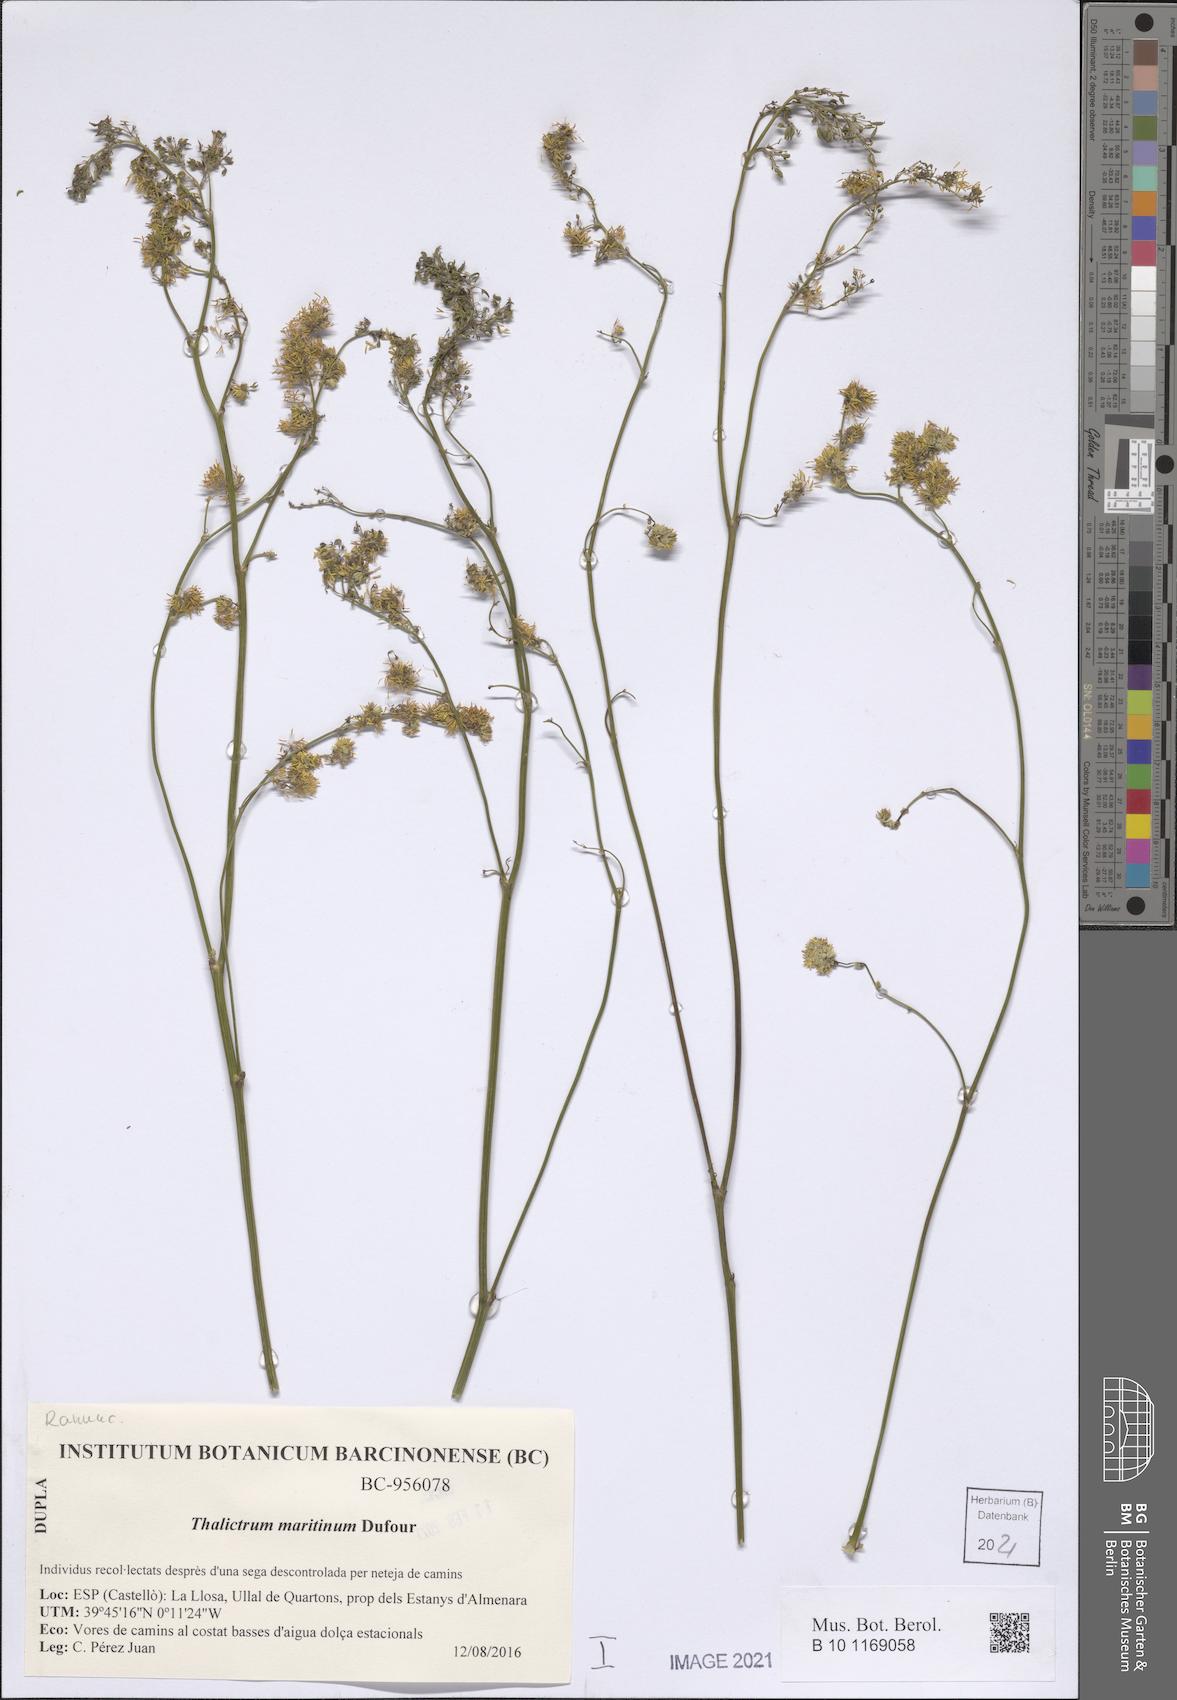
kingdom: Plantae
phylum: Tracheophyta
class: Magnoliopsida
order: Ranunculales
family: Ranunculaceae
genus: Thalictrum
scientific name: Thalictrum maritimum
